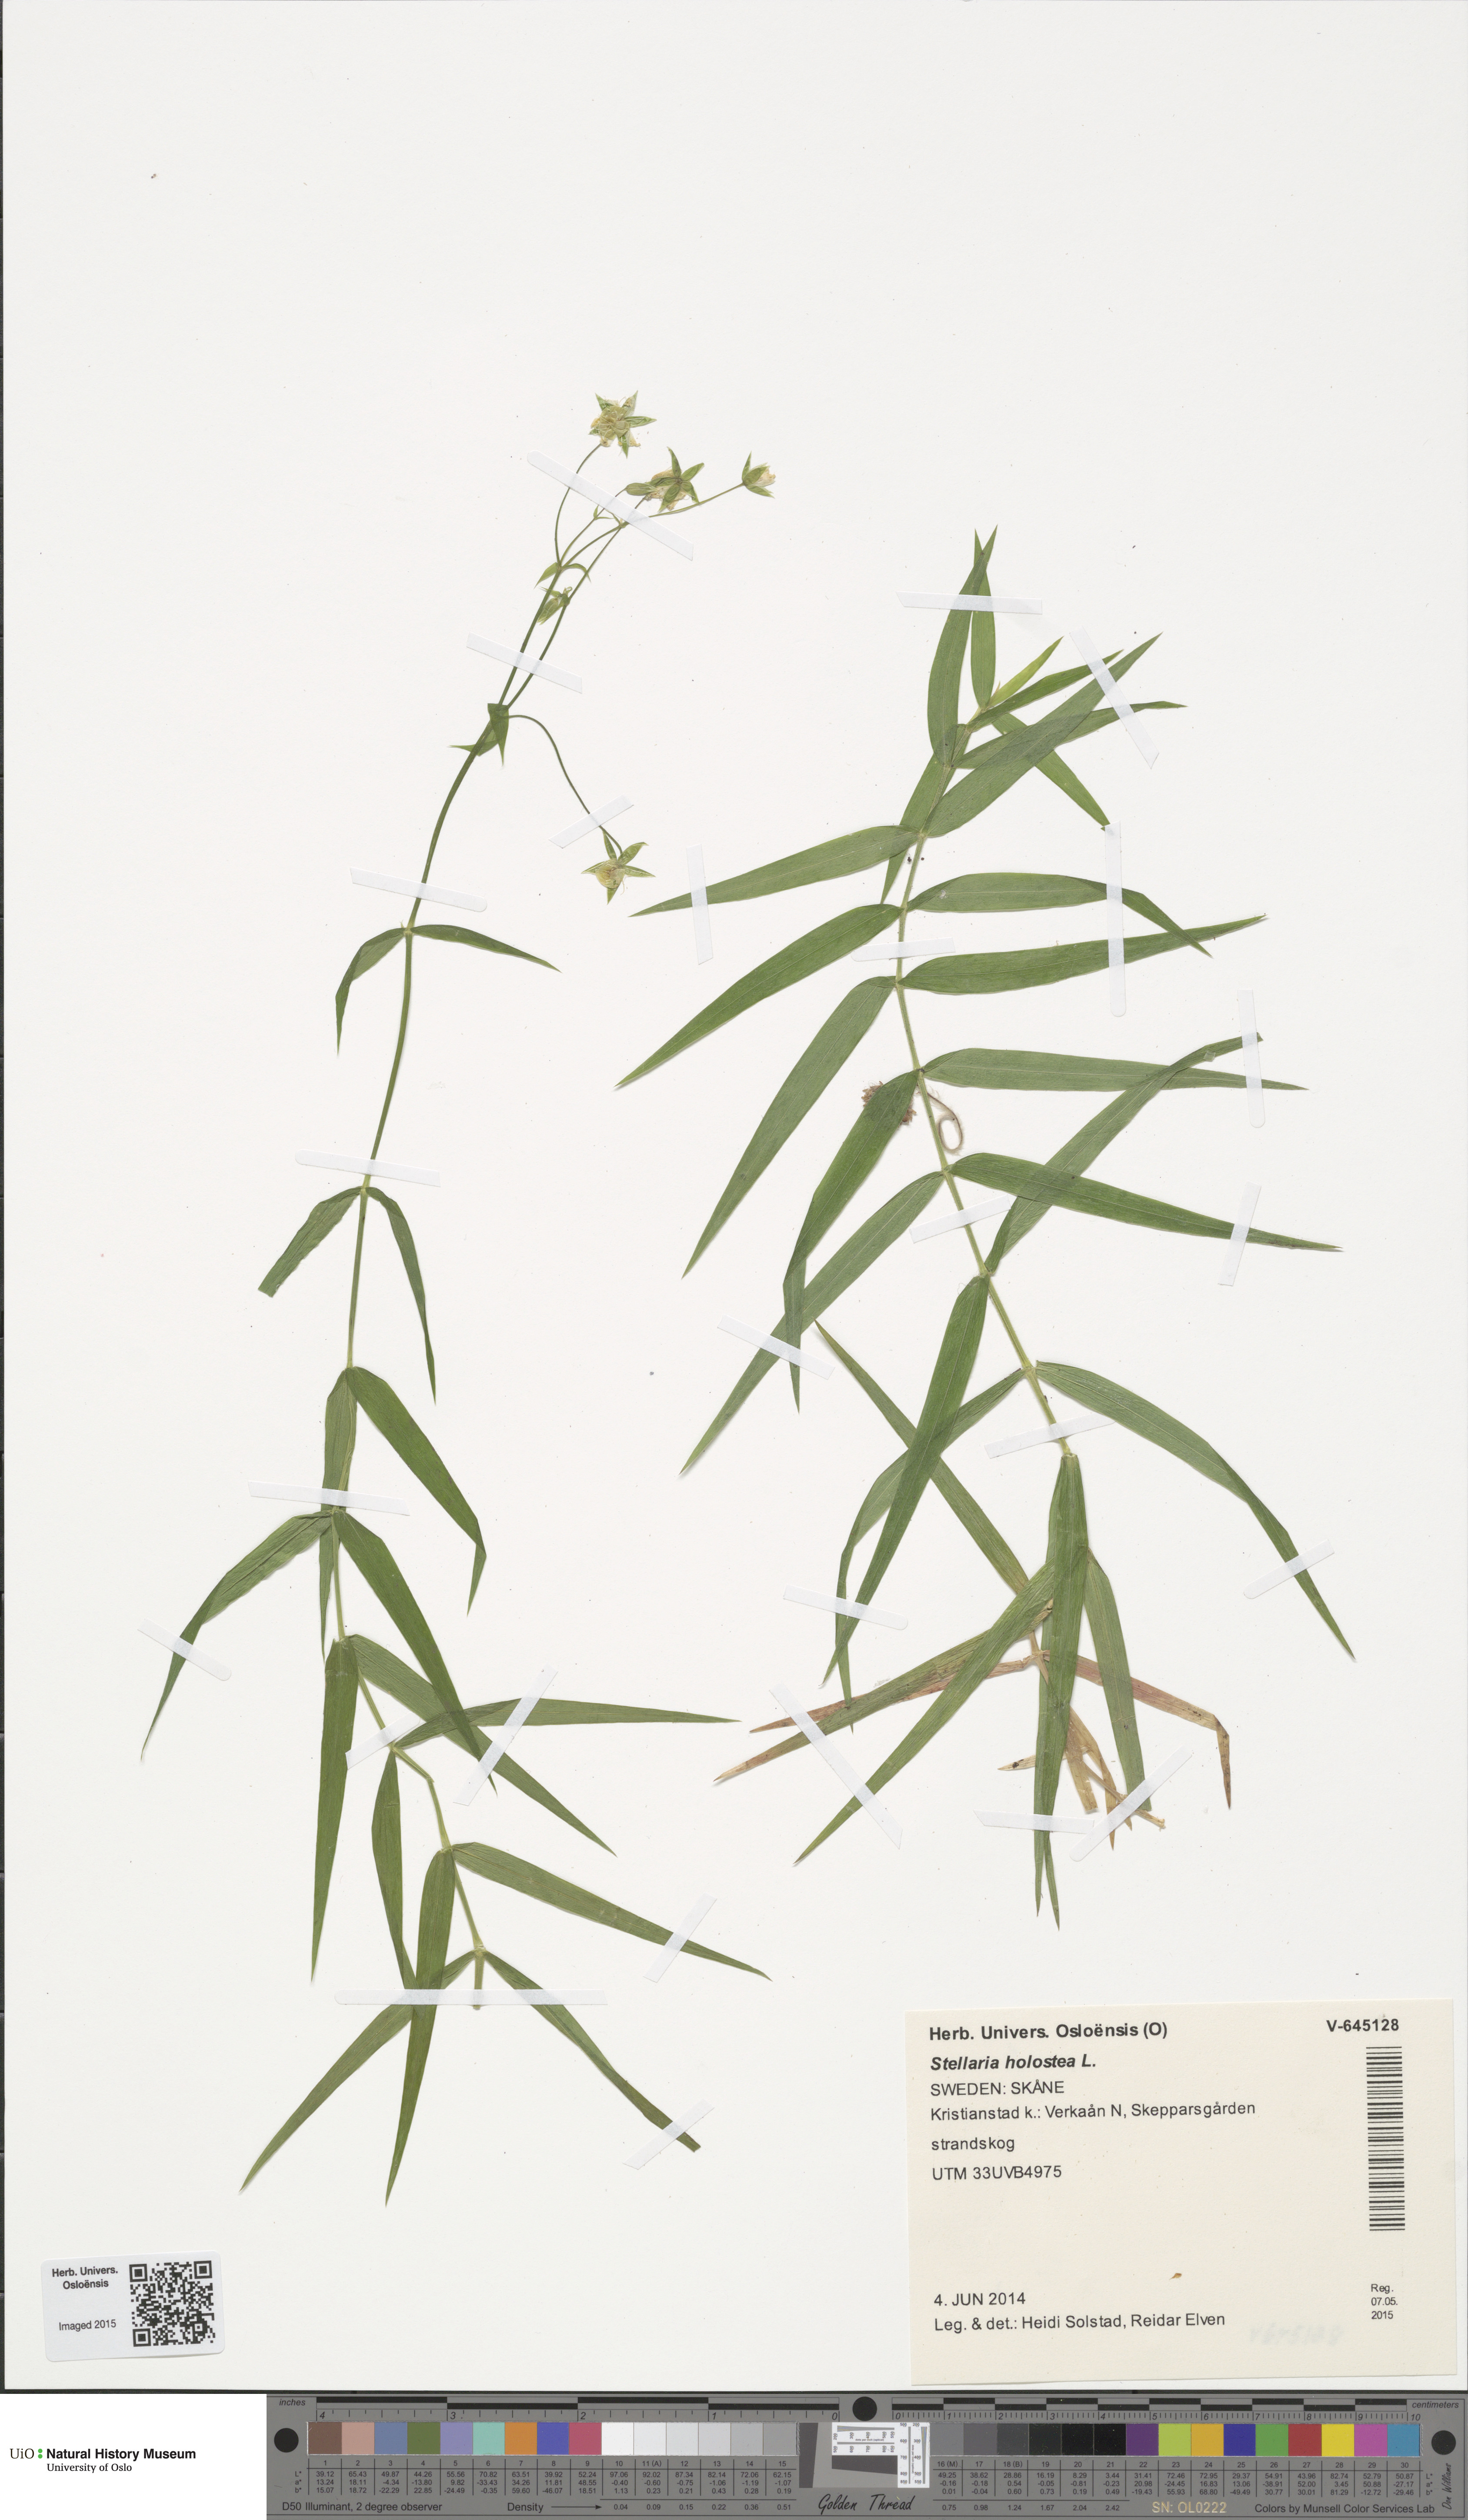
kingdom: Plantae
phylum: Tracheophyta
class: Magnoliopsida
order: Caryophyllales
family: Caryophyllaceae
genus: Rabelera
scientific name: Rabelera holostea
